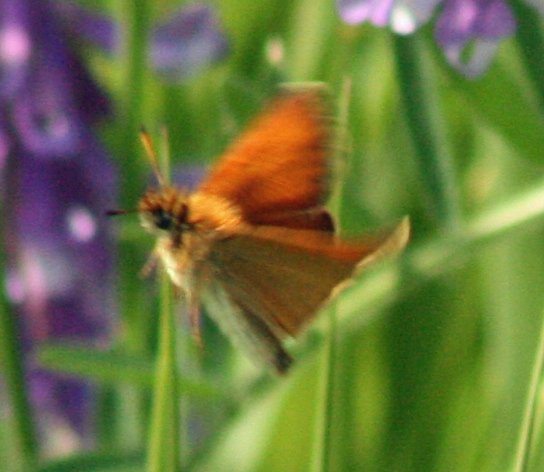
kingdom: Animalia
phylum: Arthropoda
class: Insecta
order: Lepidoptera
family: Hesperiidae
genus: Thymelicus
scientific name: Thymelicus lineola
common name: European Skipper
